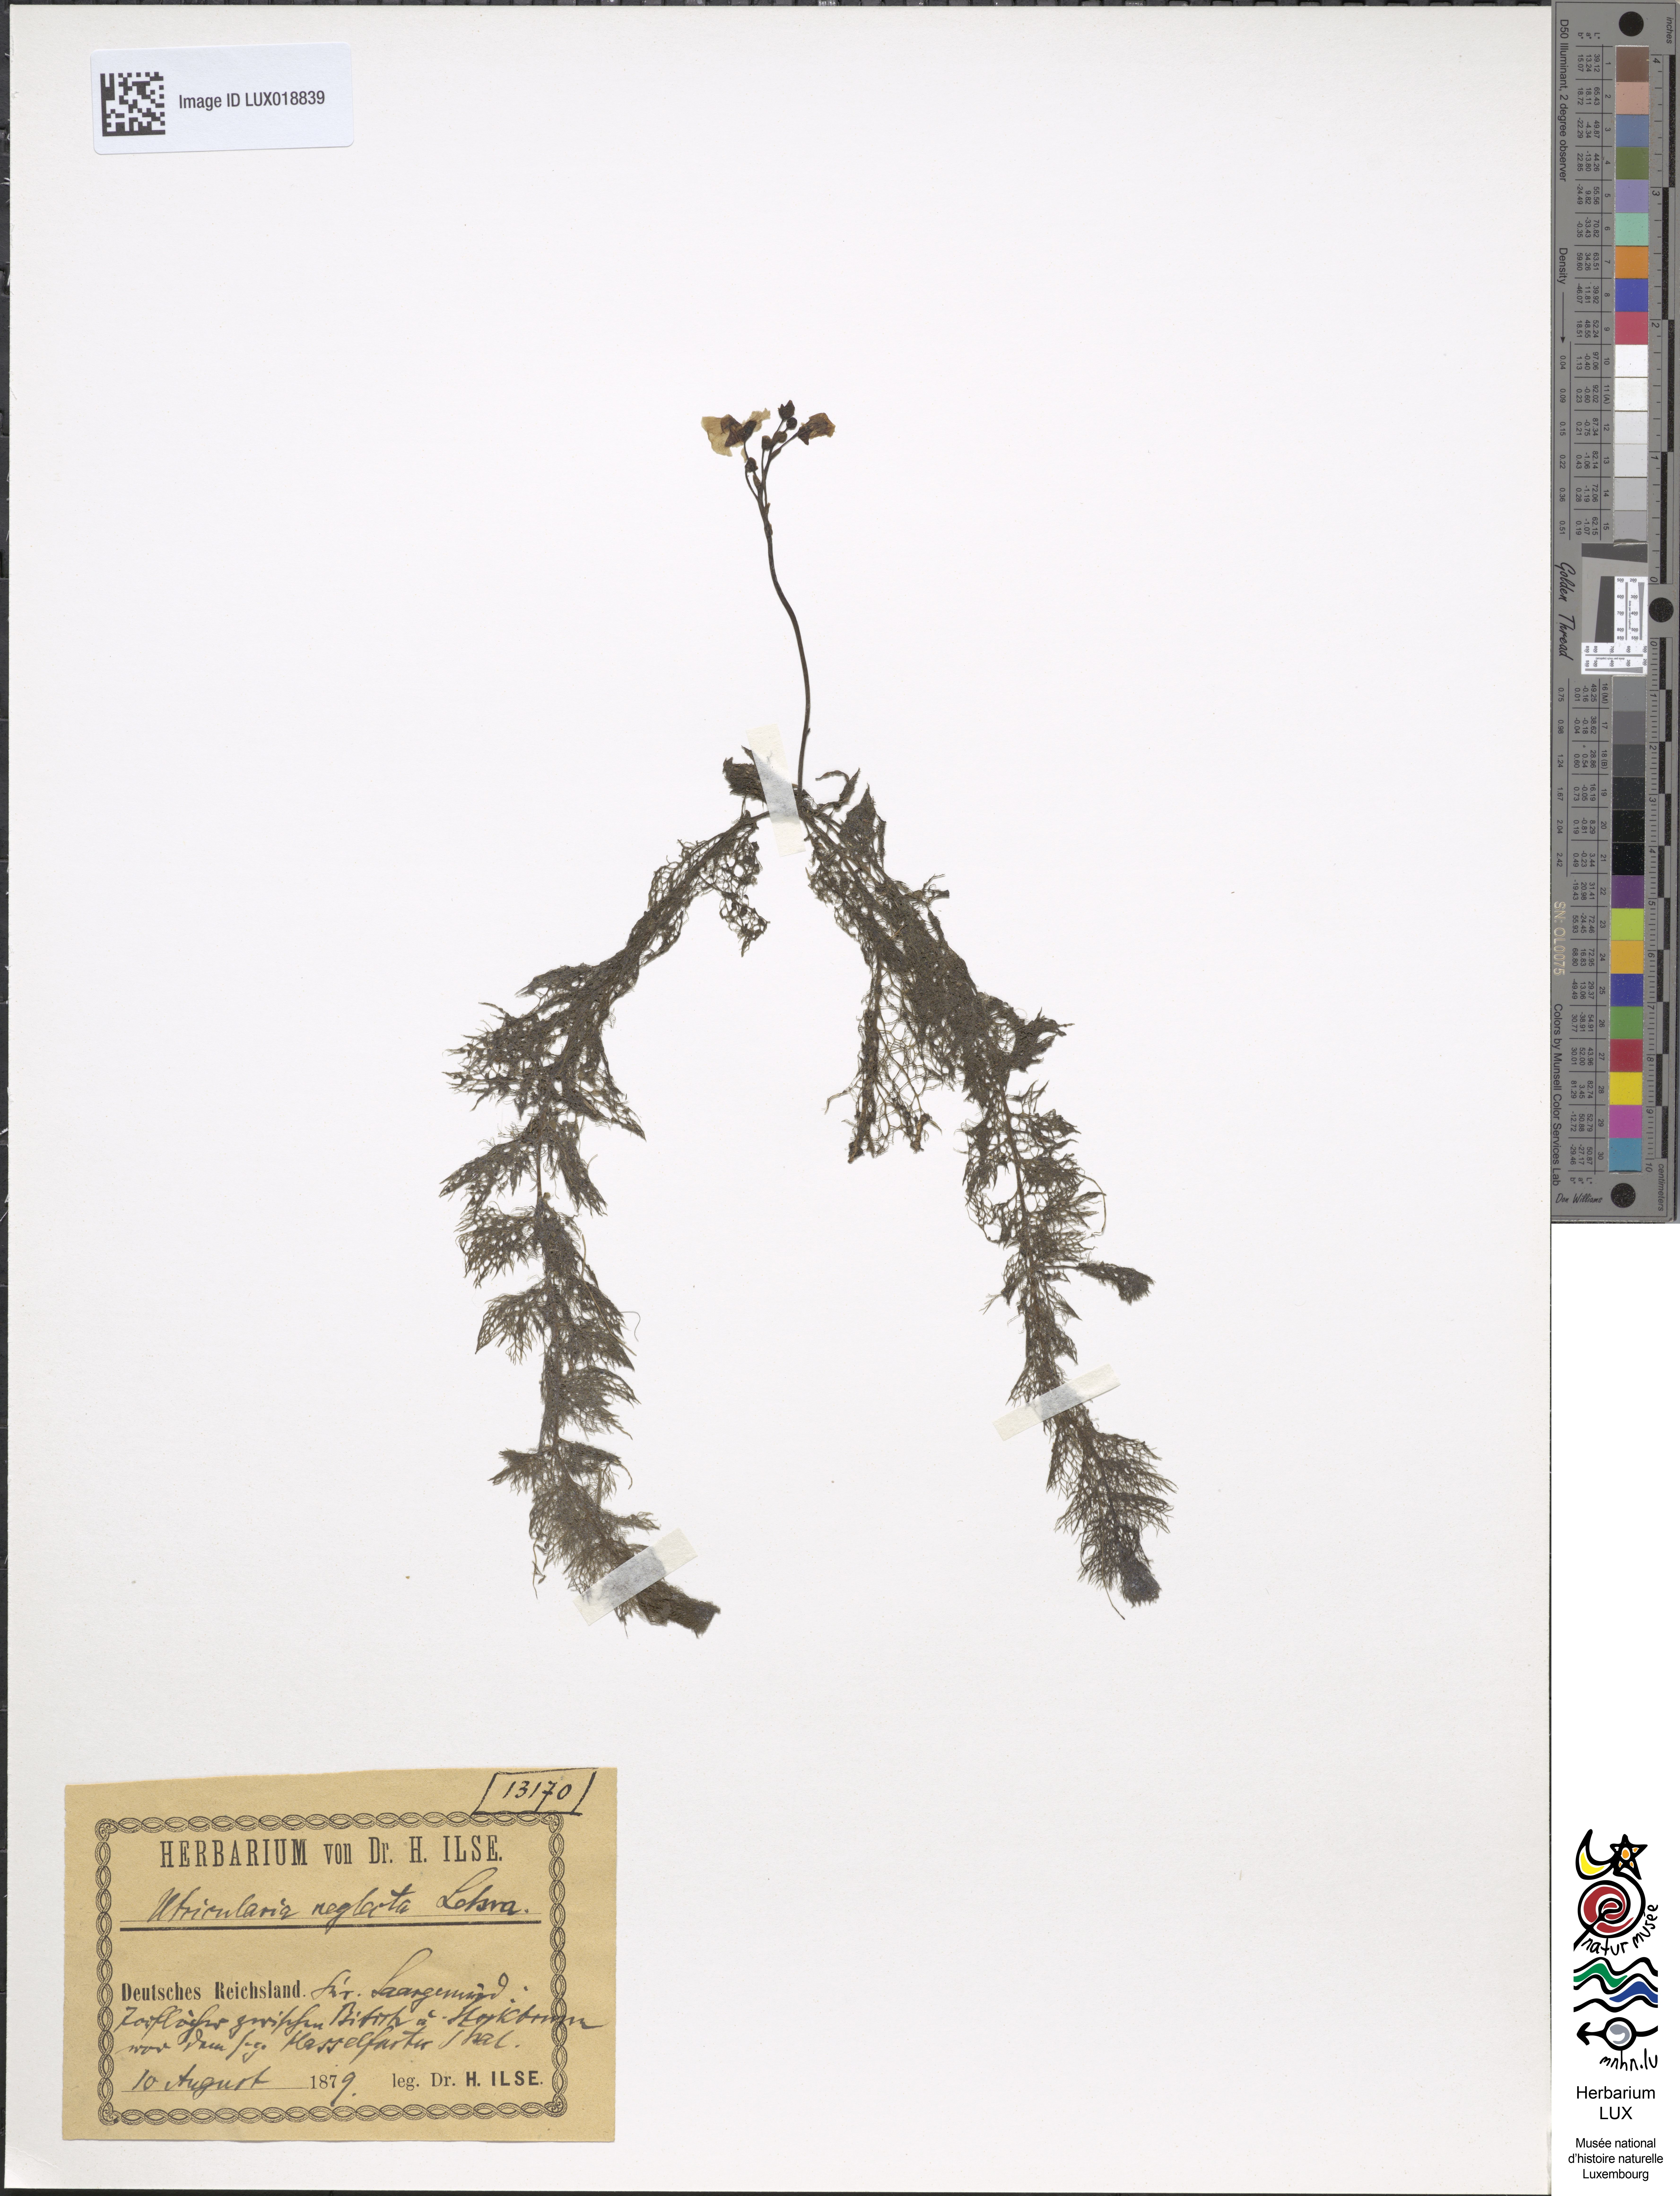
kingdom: Plantae
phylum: Tracheophyta
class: Magnoliopsida
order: Lamiales
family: Lentibulariaceae
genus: Utricularia
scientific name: Utricularia australis
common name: Bladderwort
